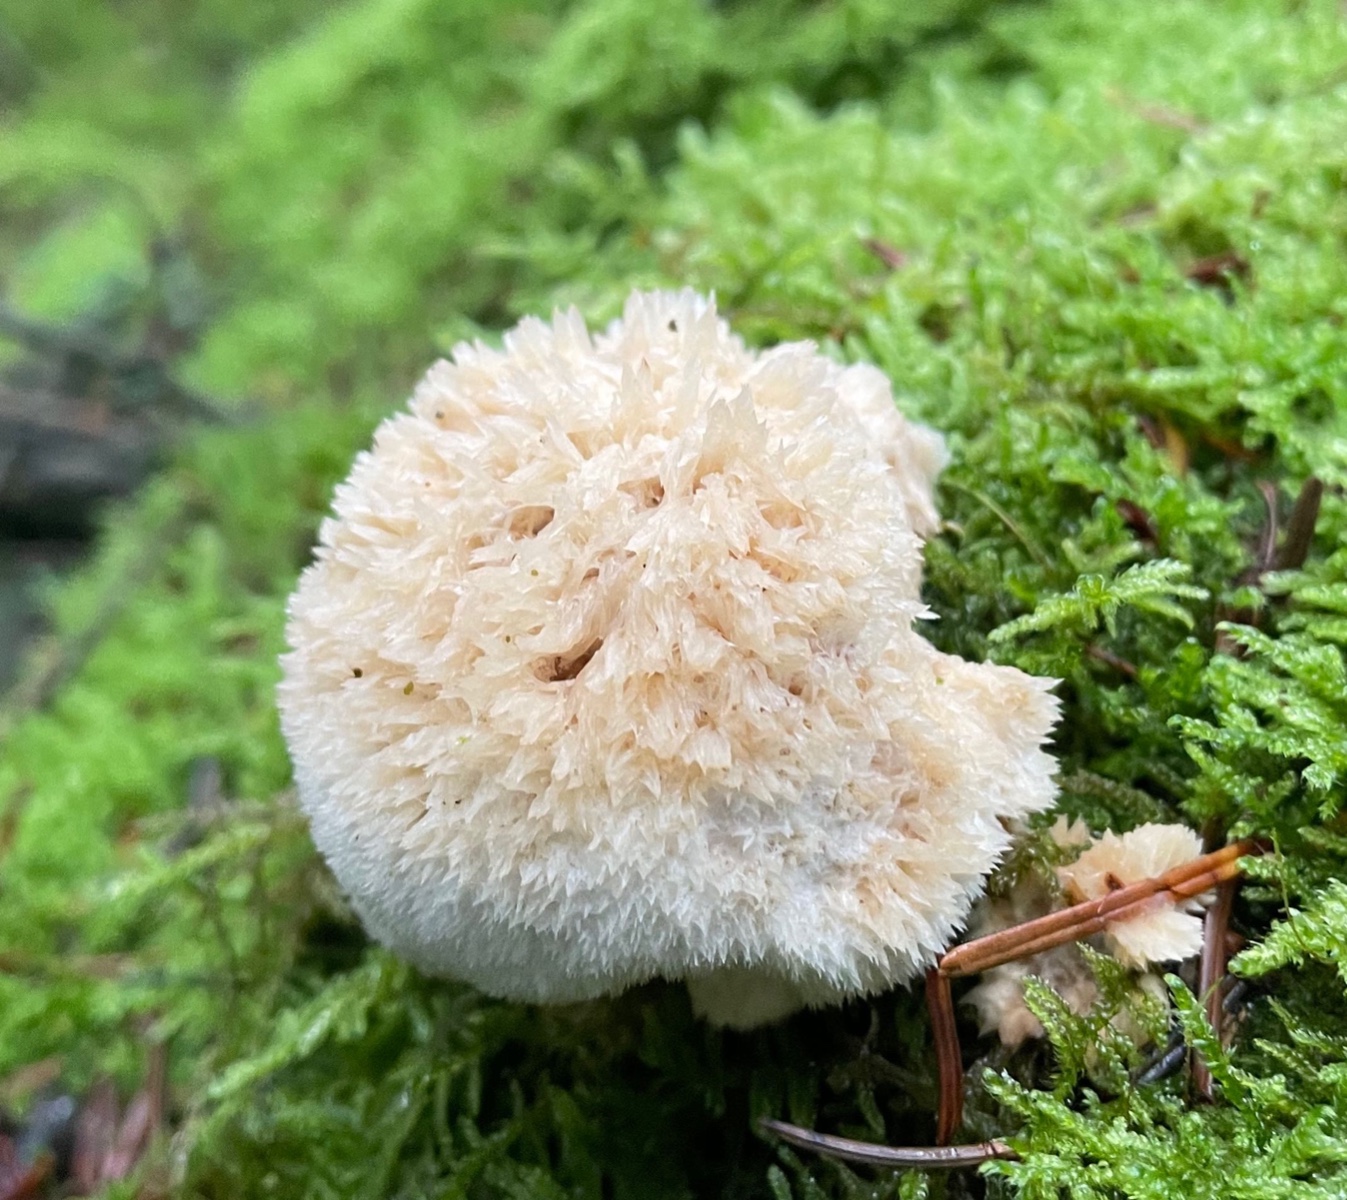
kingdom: Fungi
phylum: Basidiomycota
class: Agaricomycetes
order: Polyporales
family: Dacryobolaceae
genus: Postia
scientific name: Postia ptychogaster
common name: støvende kødporesvamp
